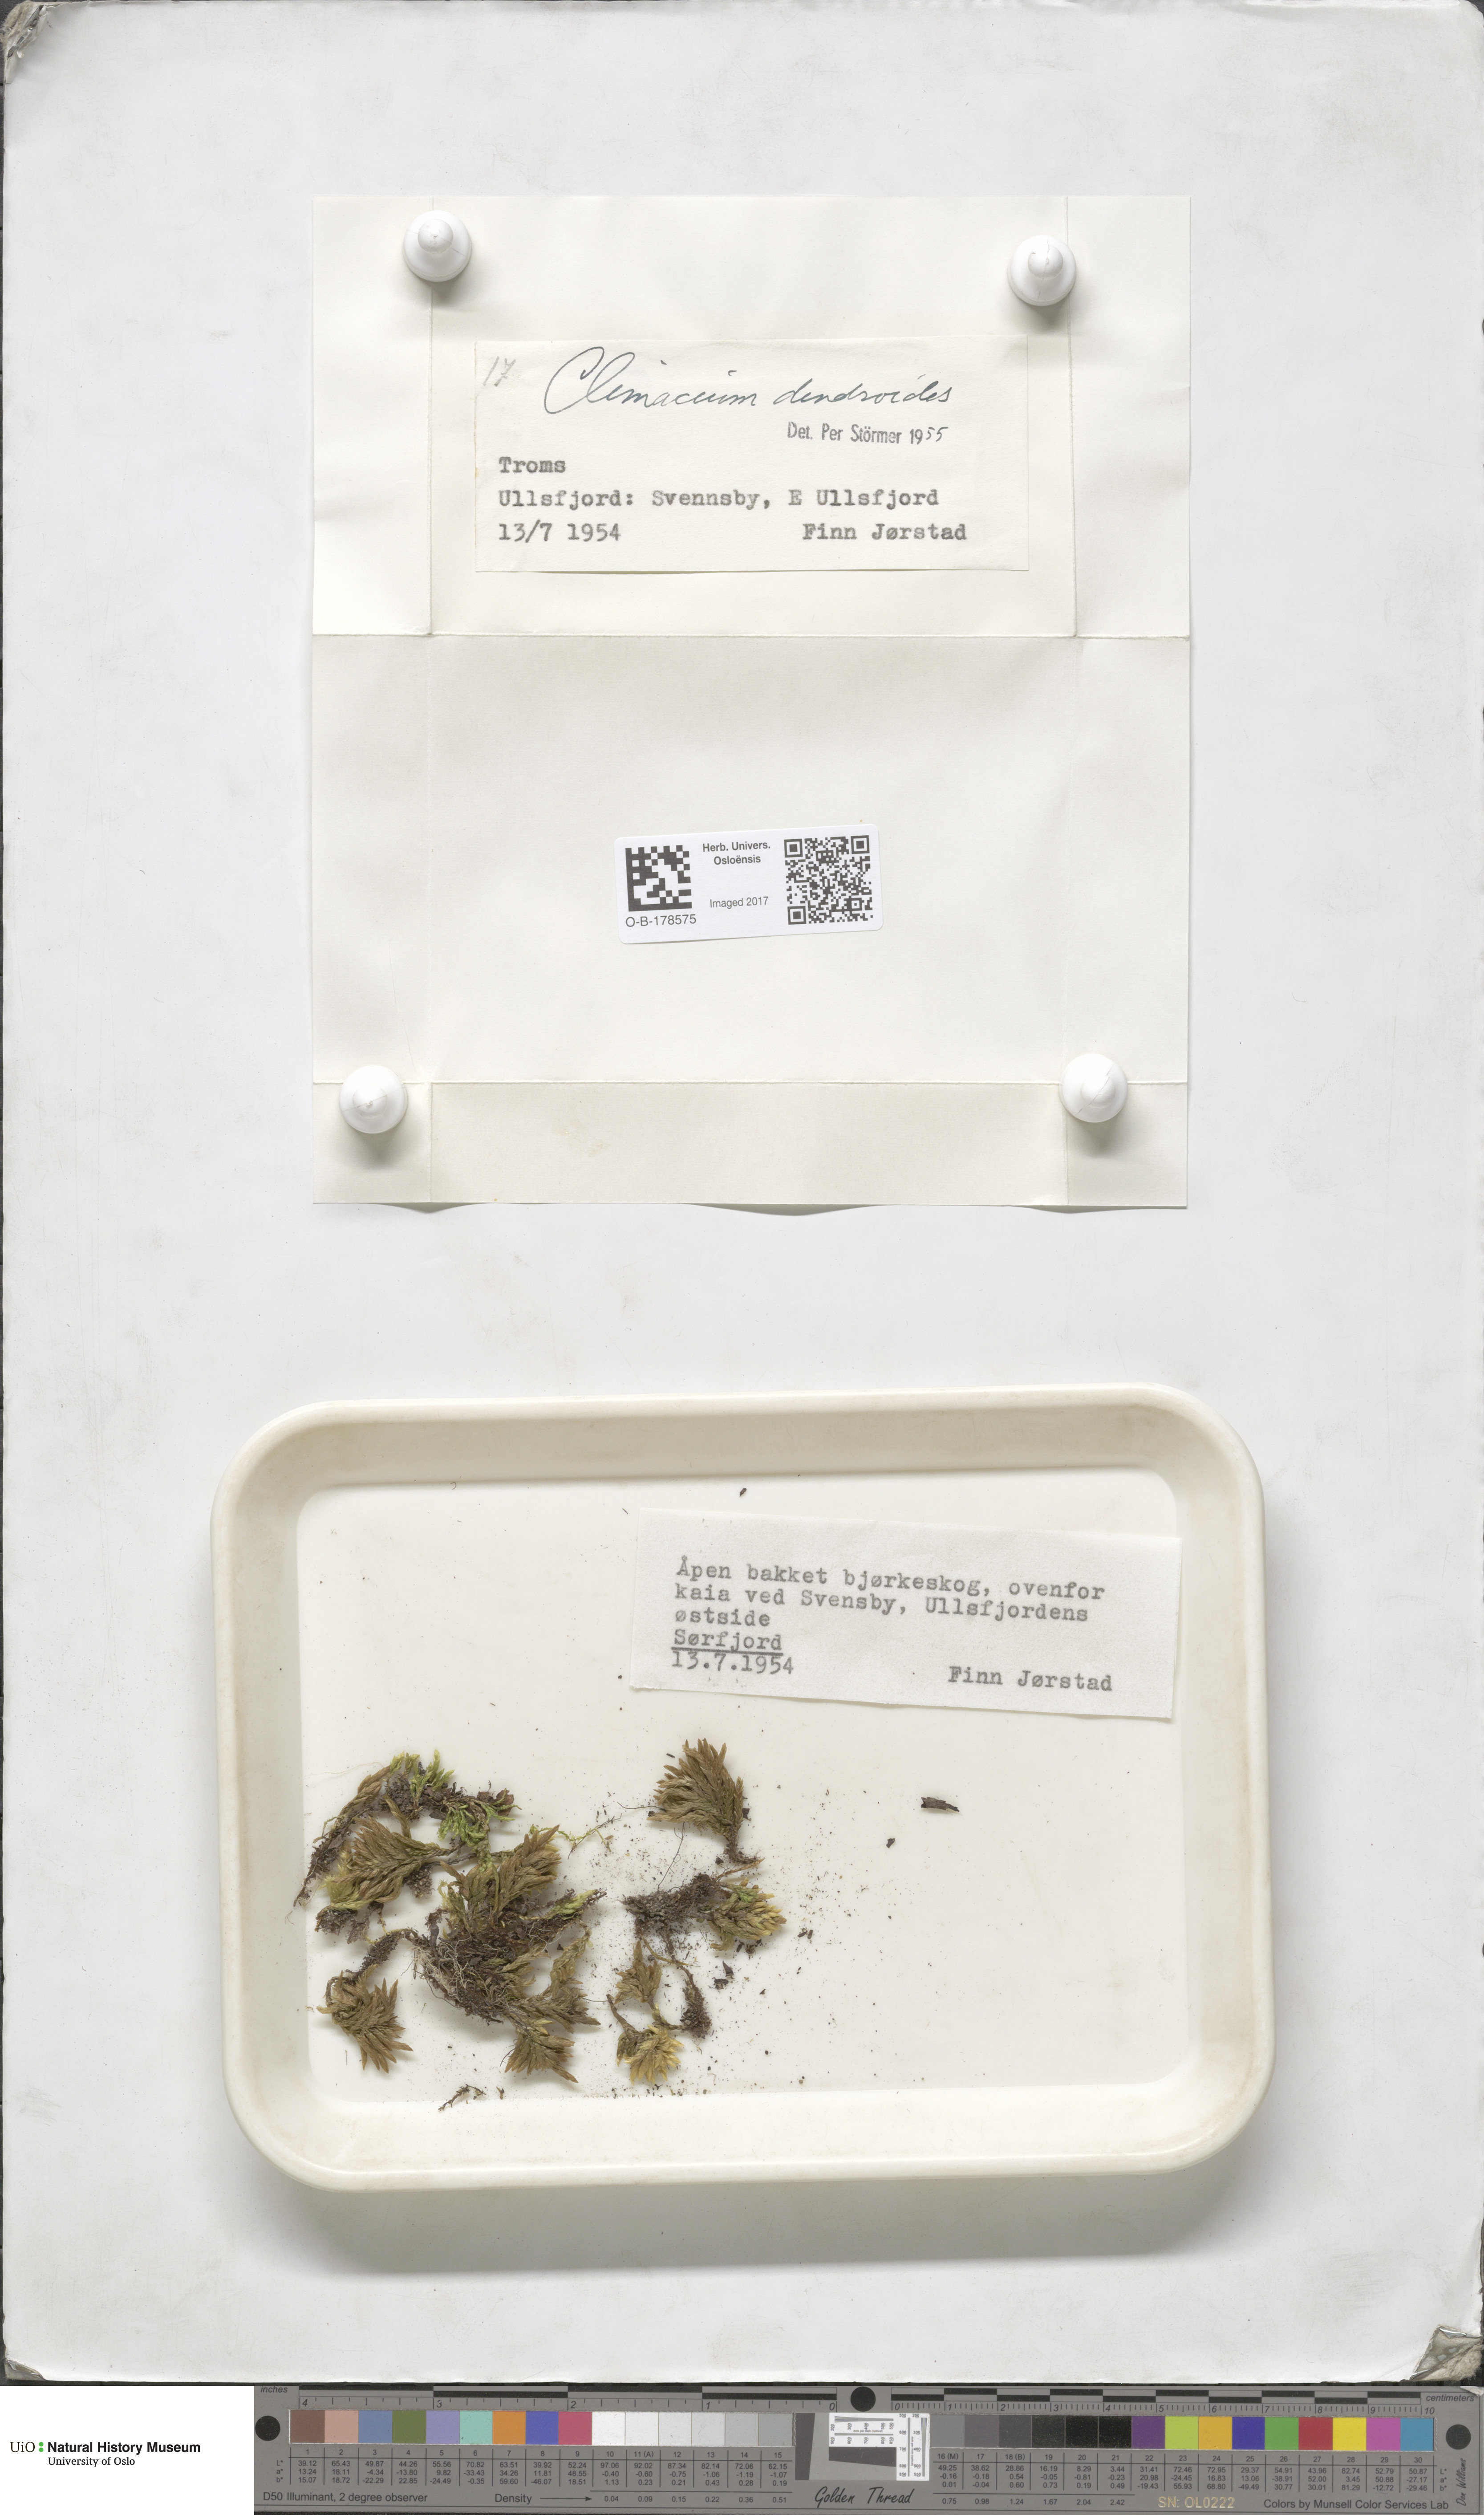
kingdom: Plantae
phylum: Bryophyta
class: Bryopsida
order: Hypnales
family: Climaciaceae
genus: Climacium
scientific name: Climacium dendroides
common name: Northern tree moss
